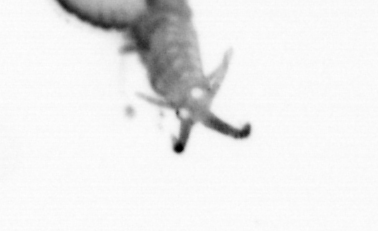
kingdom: Animalia
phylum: Annelida
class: Polychaeta
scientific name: Polychaeta
